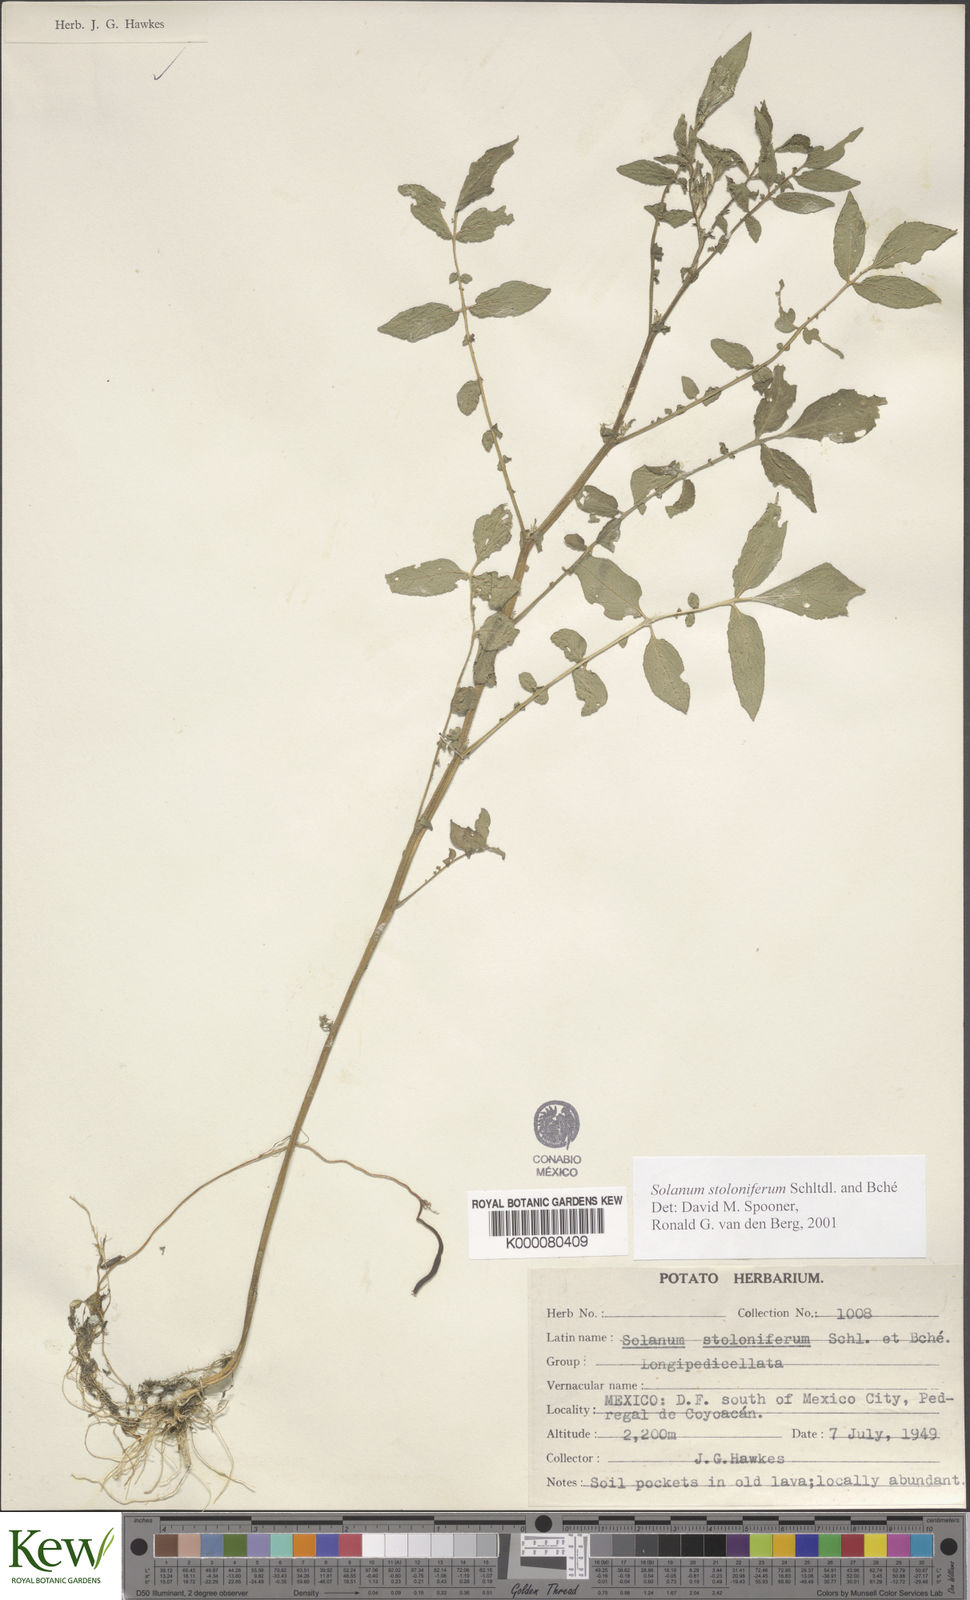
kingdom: Plantae
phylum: Tracheophyta
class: Magnoliopsida
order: Solanales
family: Solanaceae
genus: Solanum
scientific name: Solanum stoloniferum
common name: Fendler's nighshade
